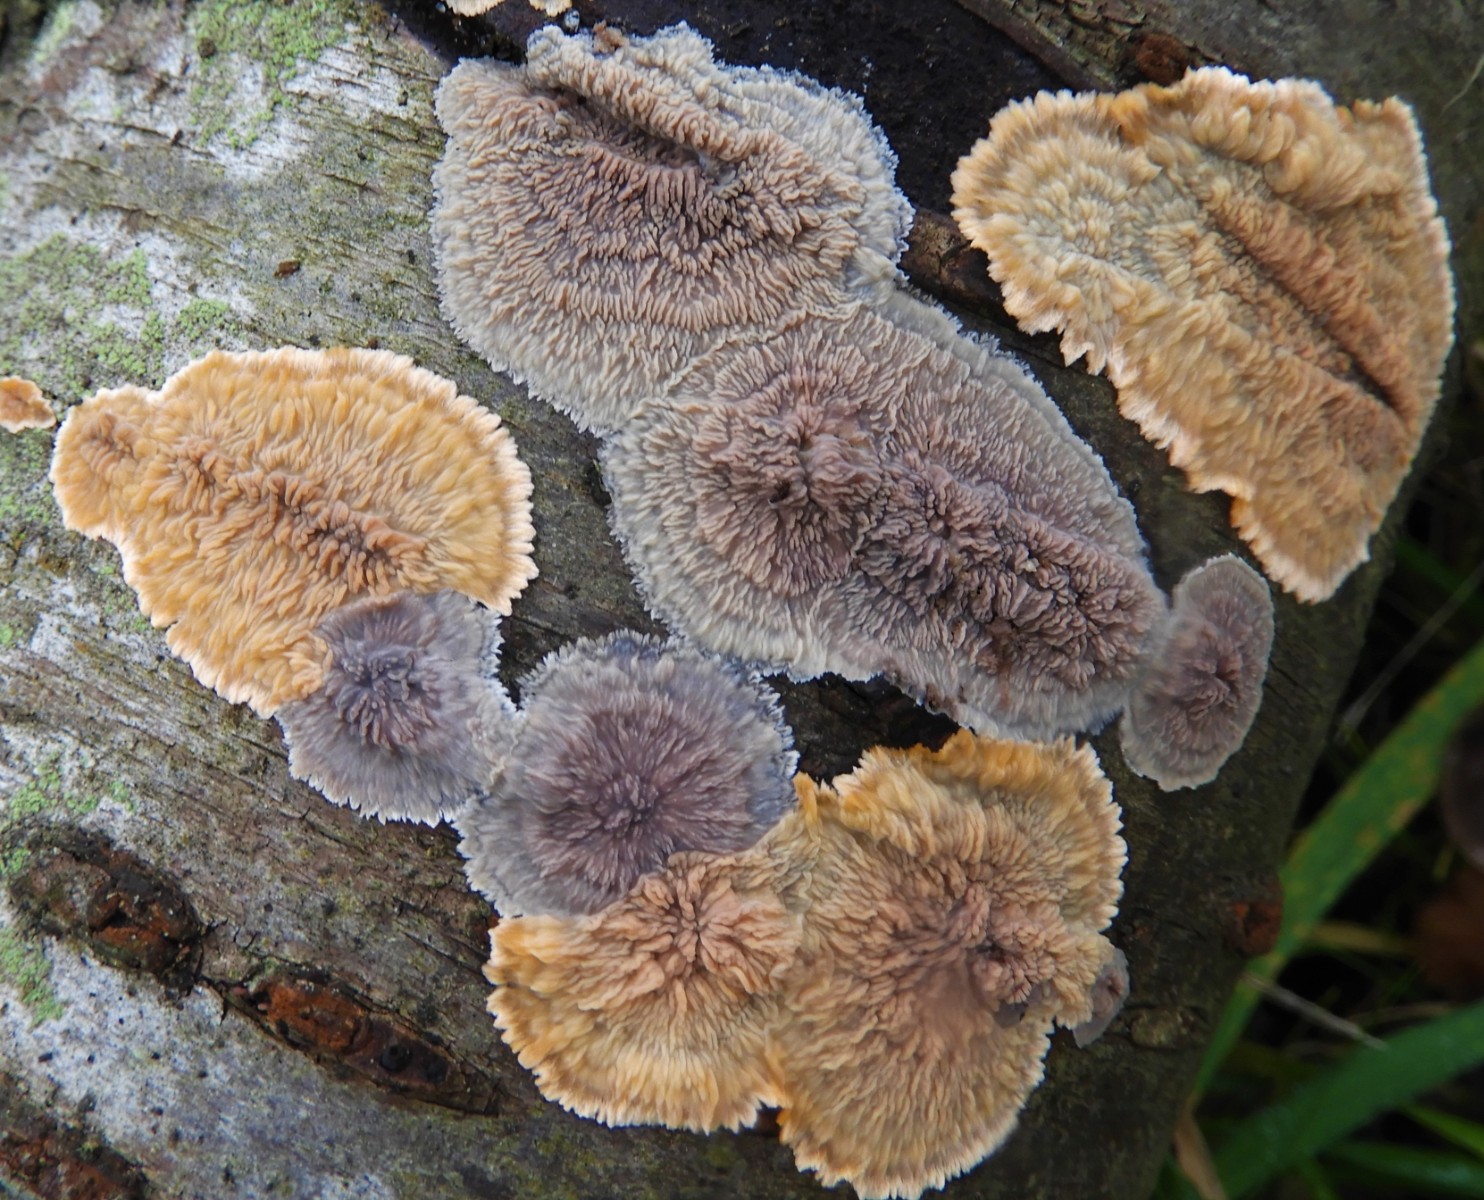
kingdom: Fungi
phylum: Basidiomycota
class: Agaricomycetes
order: Polyporales
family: Meruliaceae
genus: Phlebia
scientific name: Phlebia radiata
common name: stråle-åresvamp
